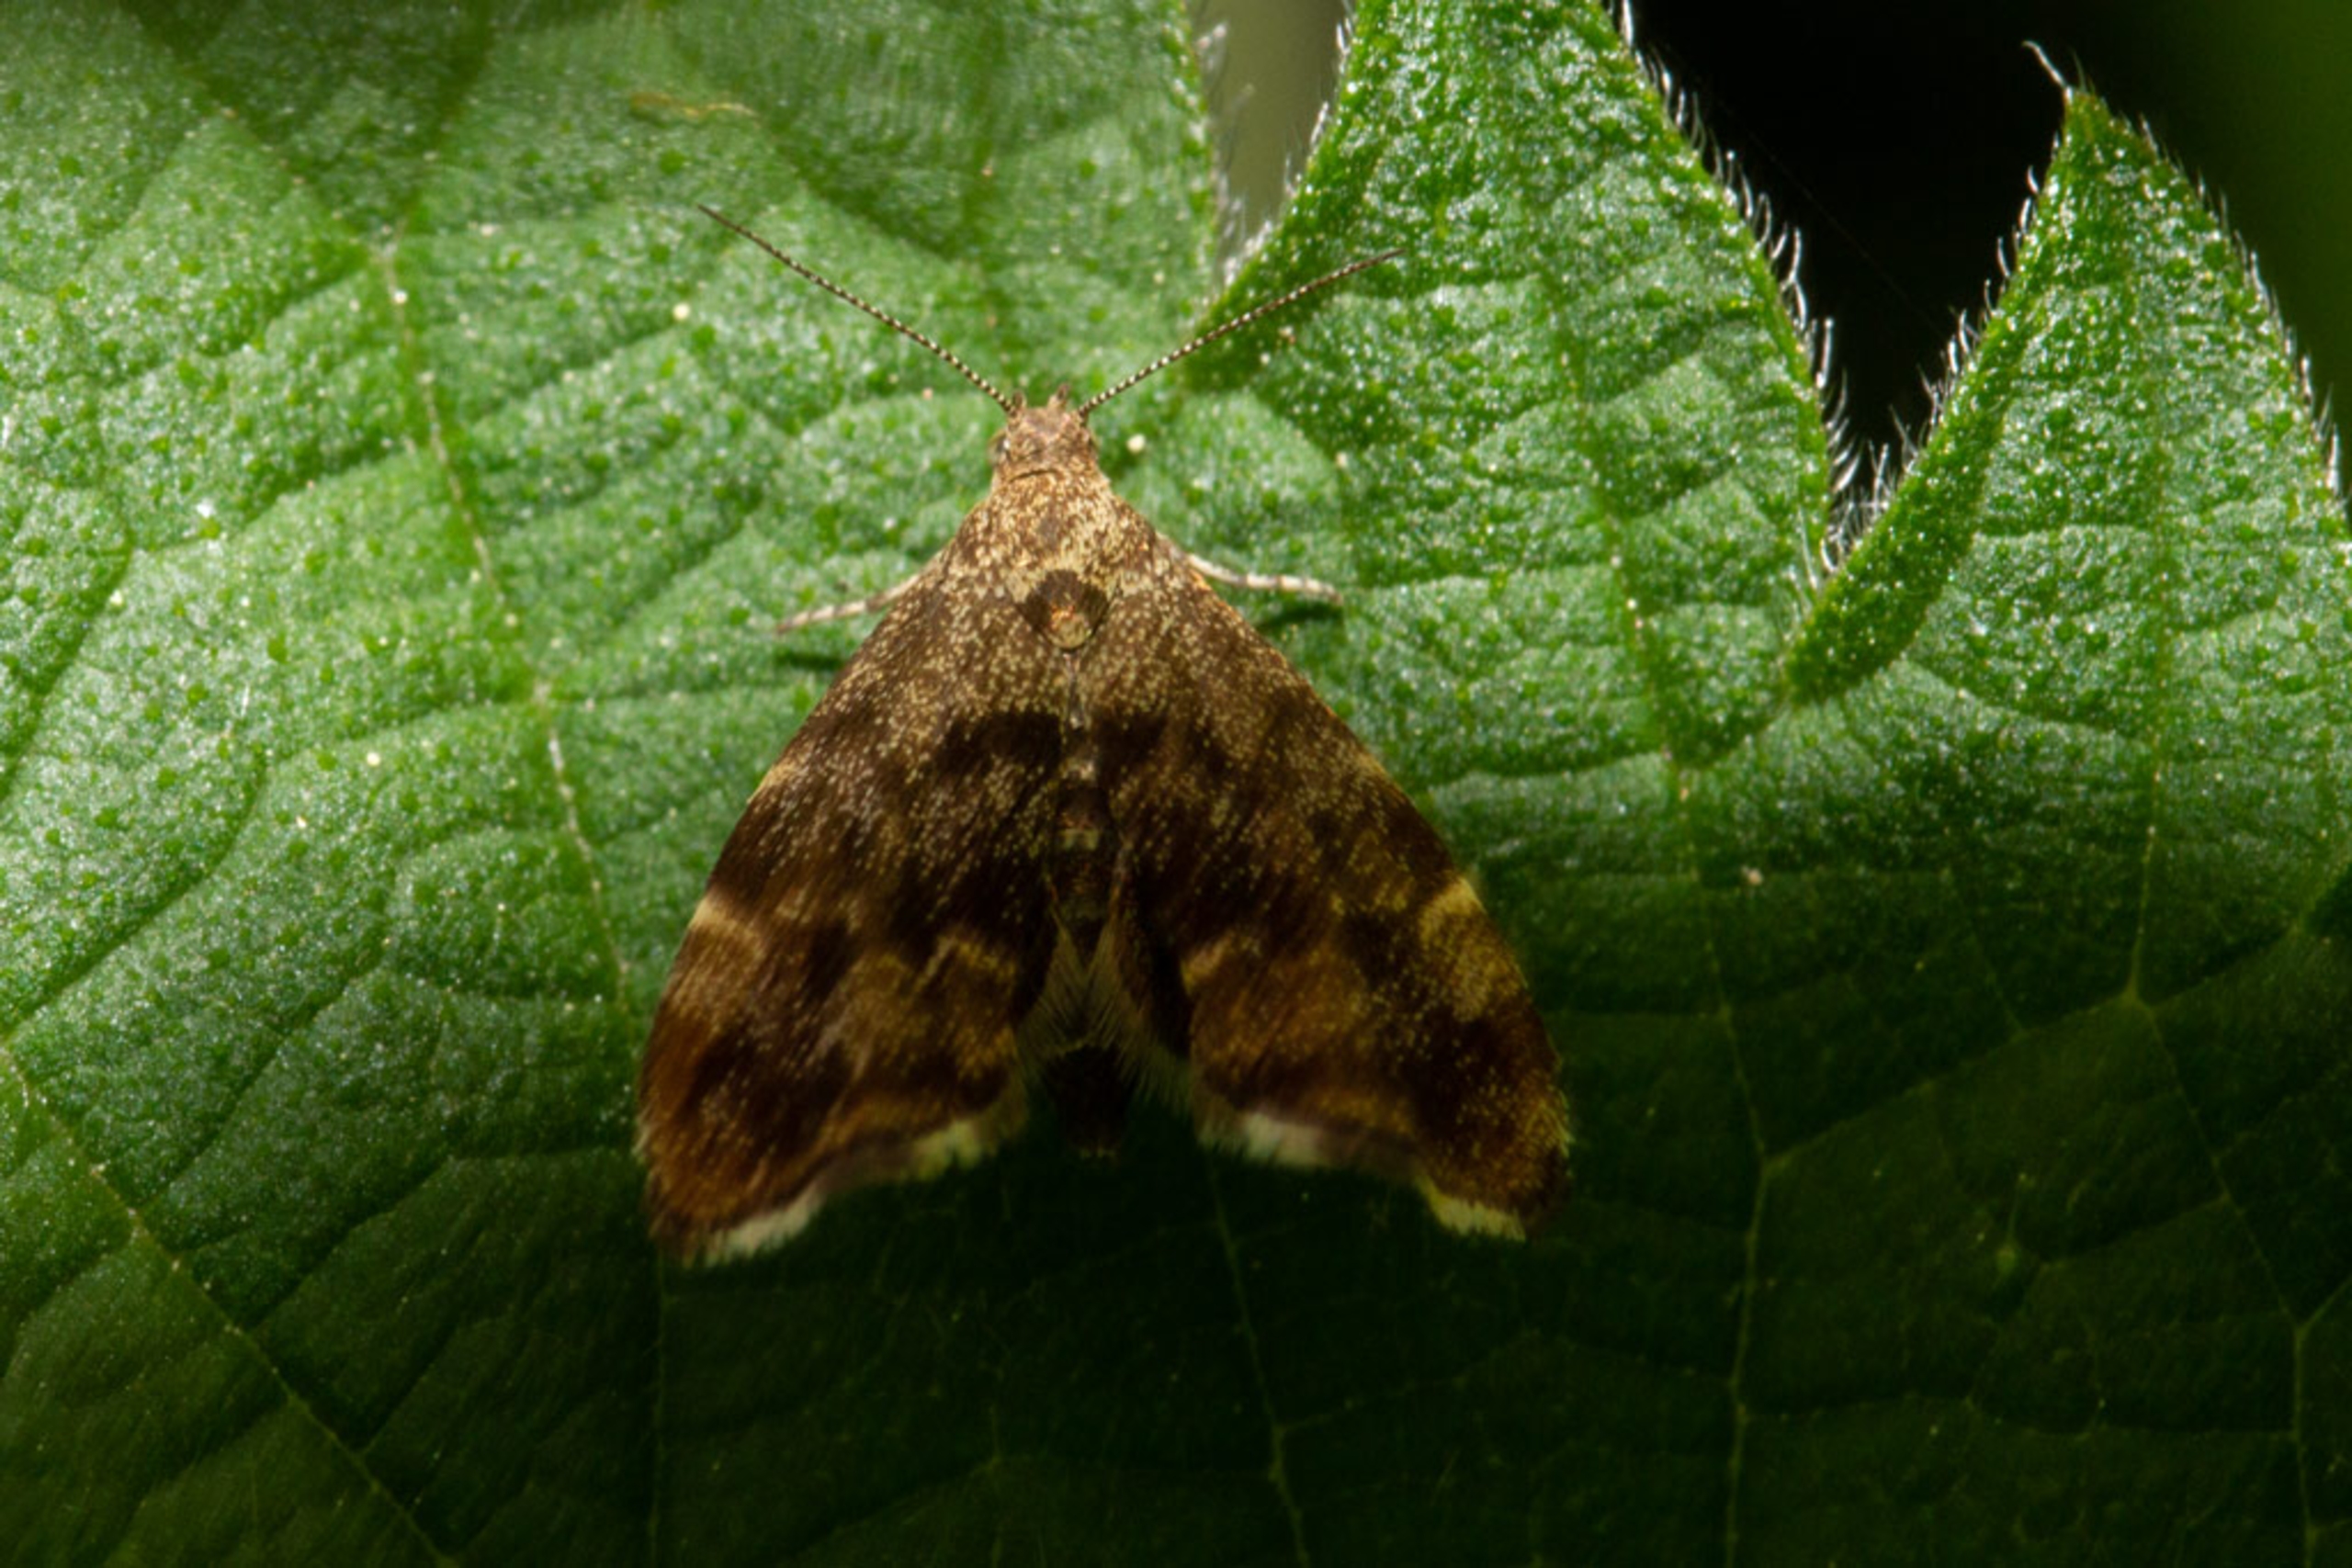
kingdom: Animalia
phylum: Arthropoda
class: Insecta
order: Lepidoptera
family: Choreutidae
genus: Anthophila
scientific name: Anthophila fabriciana
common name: Bredvinget nældevikler
